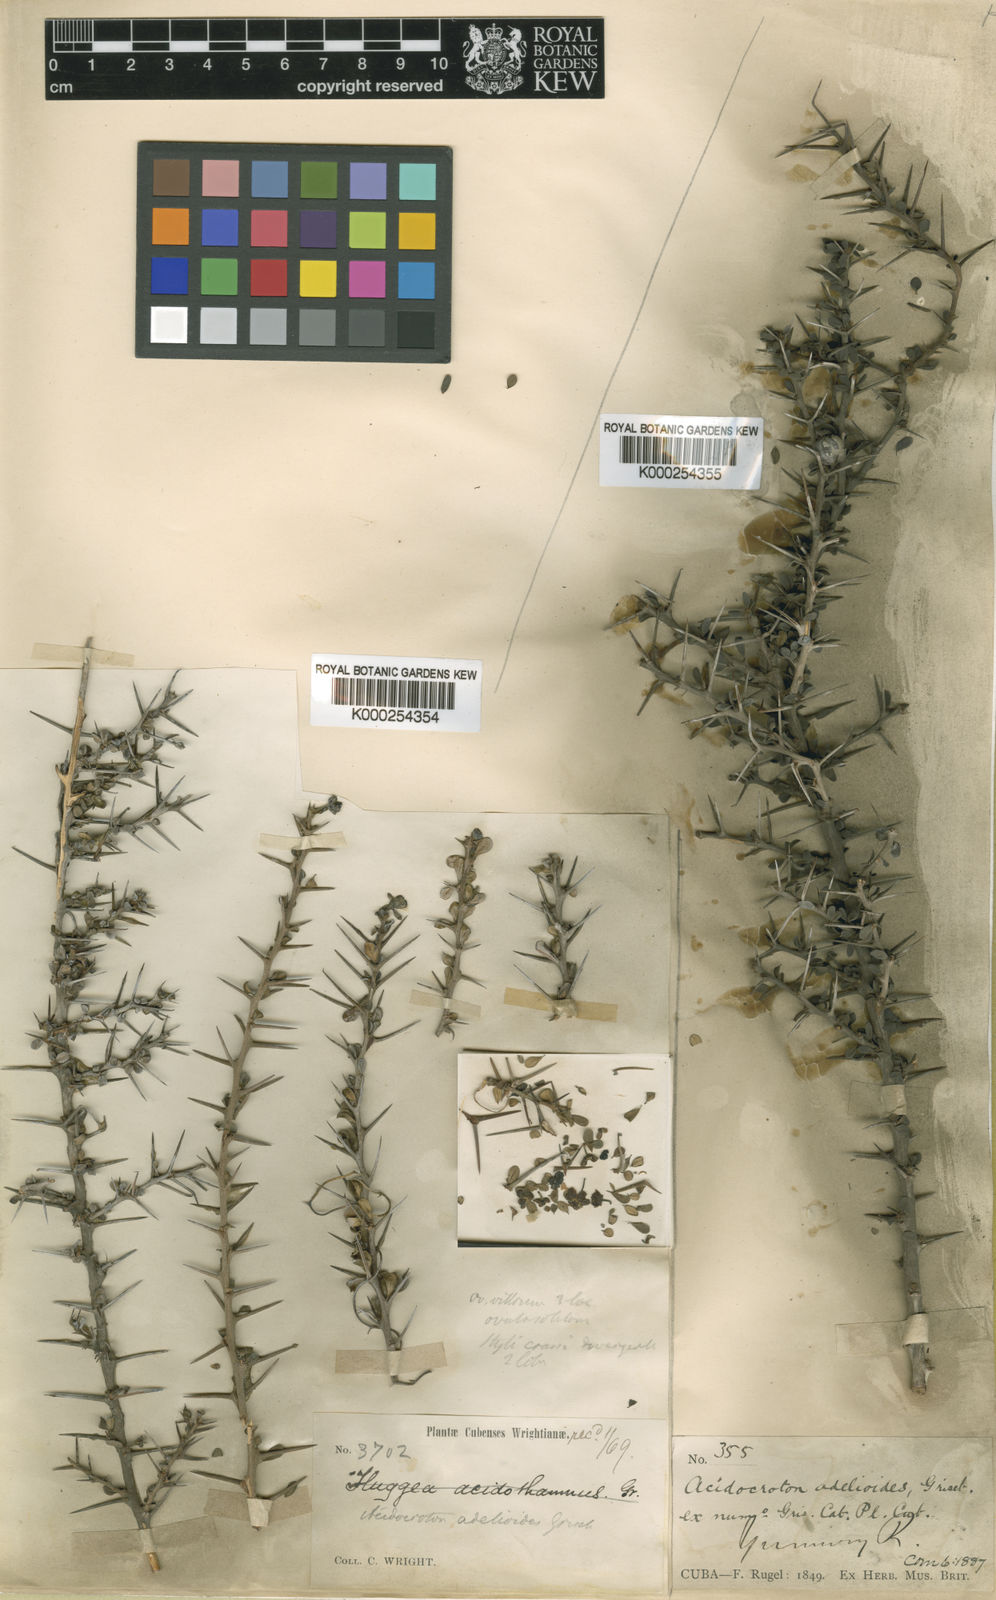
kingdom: Plantae
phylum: Tracheophyta
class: Magnoliopsida
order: Malpighiales
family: Euphorbiaceae
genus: Acidocroton
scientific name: Acidocroton adelioides
